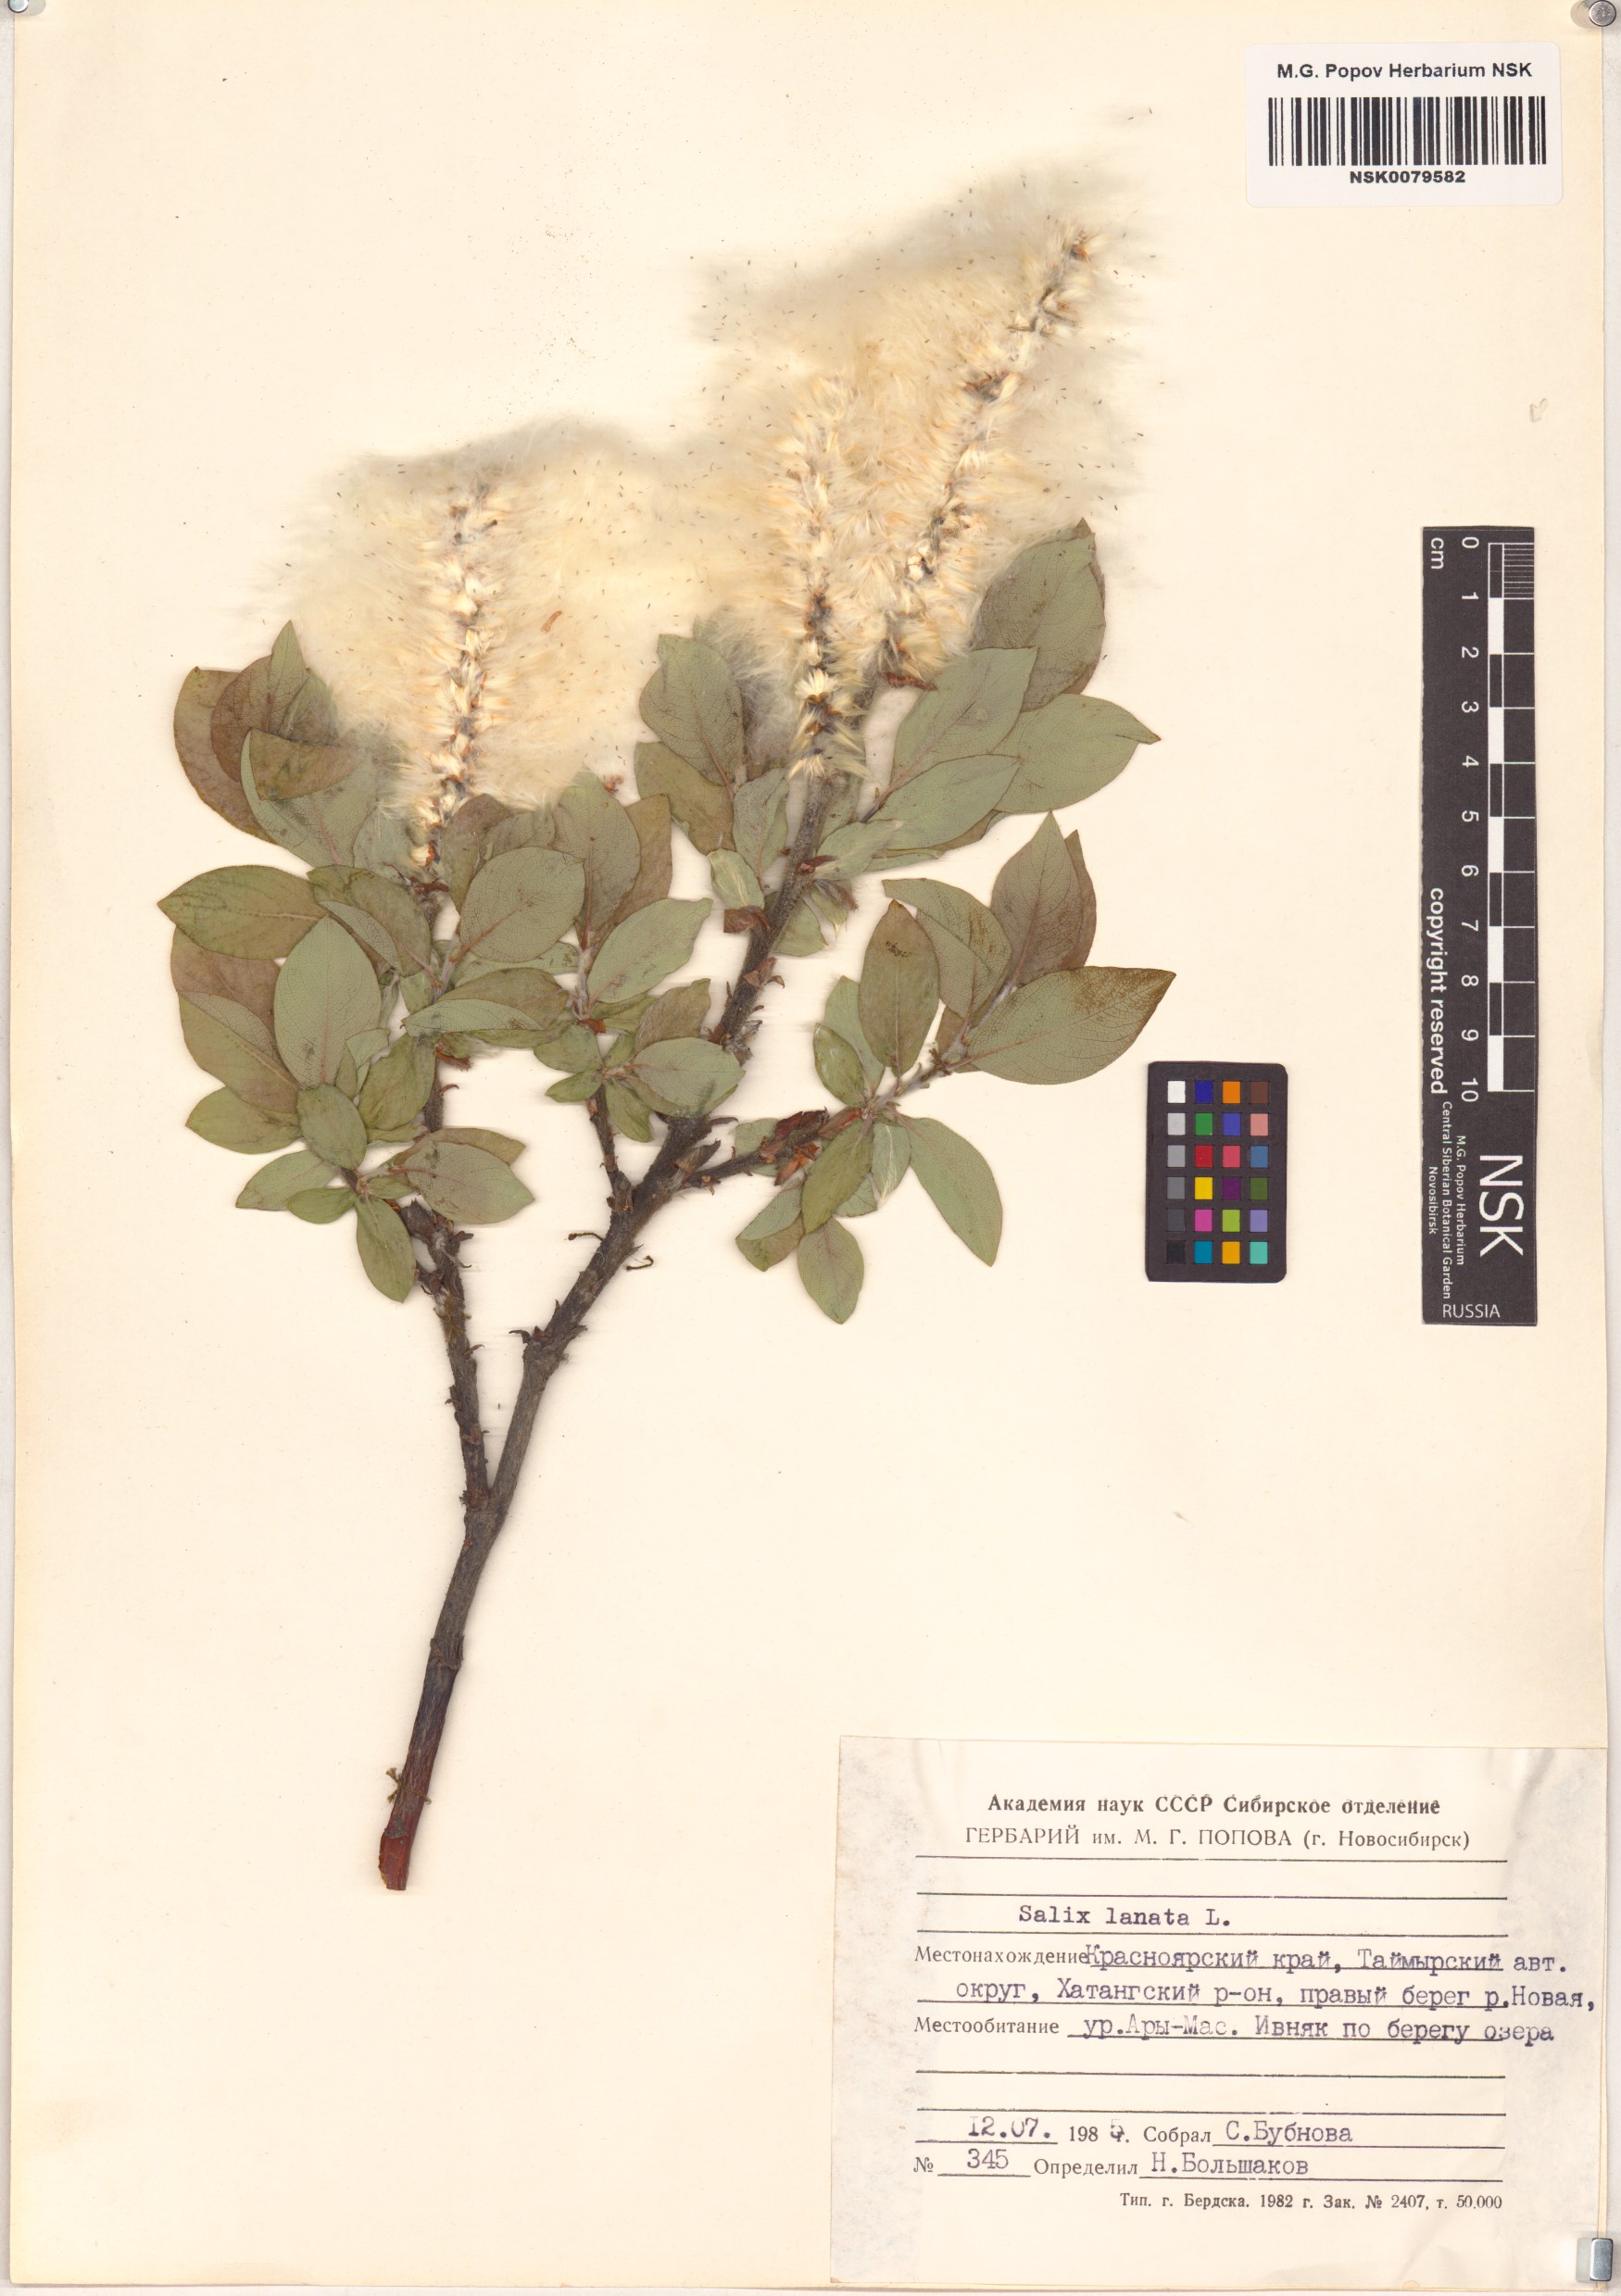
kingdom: Plantae
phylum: Tracheophyta
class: Magnoliopsida
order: Malpighiales
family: Salicaceae
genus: Salix
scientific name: Salix lanata
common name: Woolly willow
